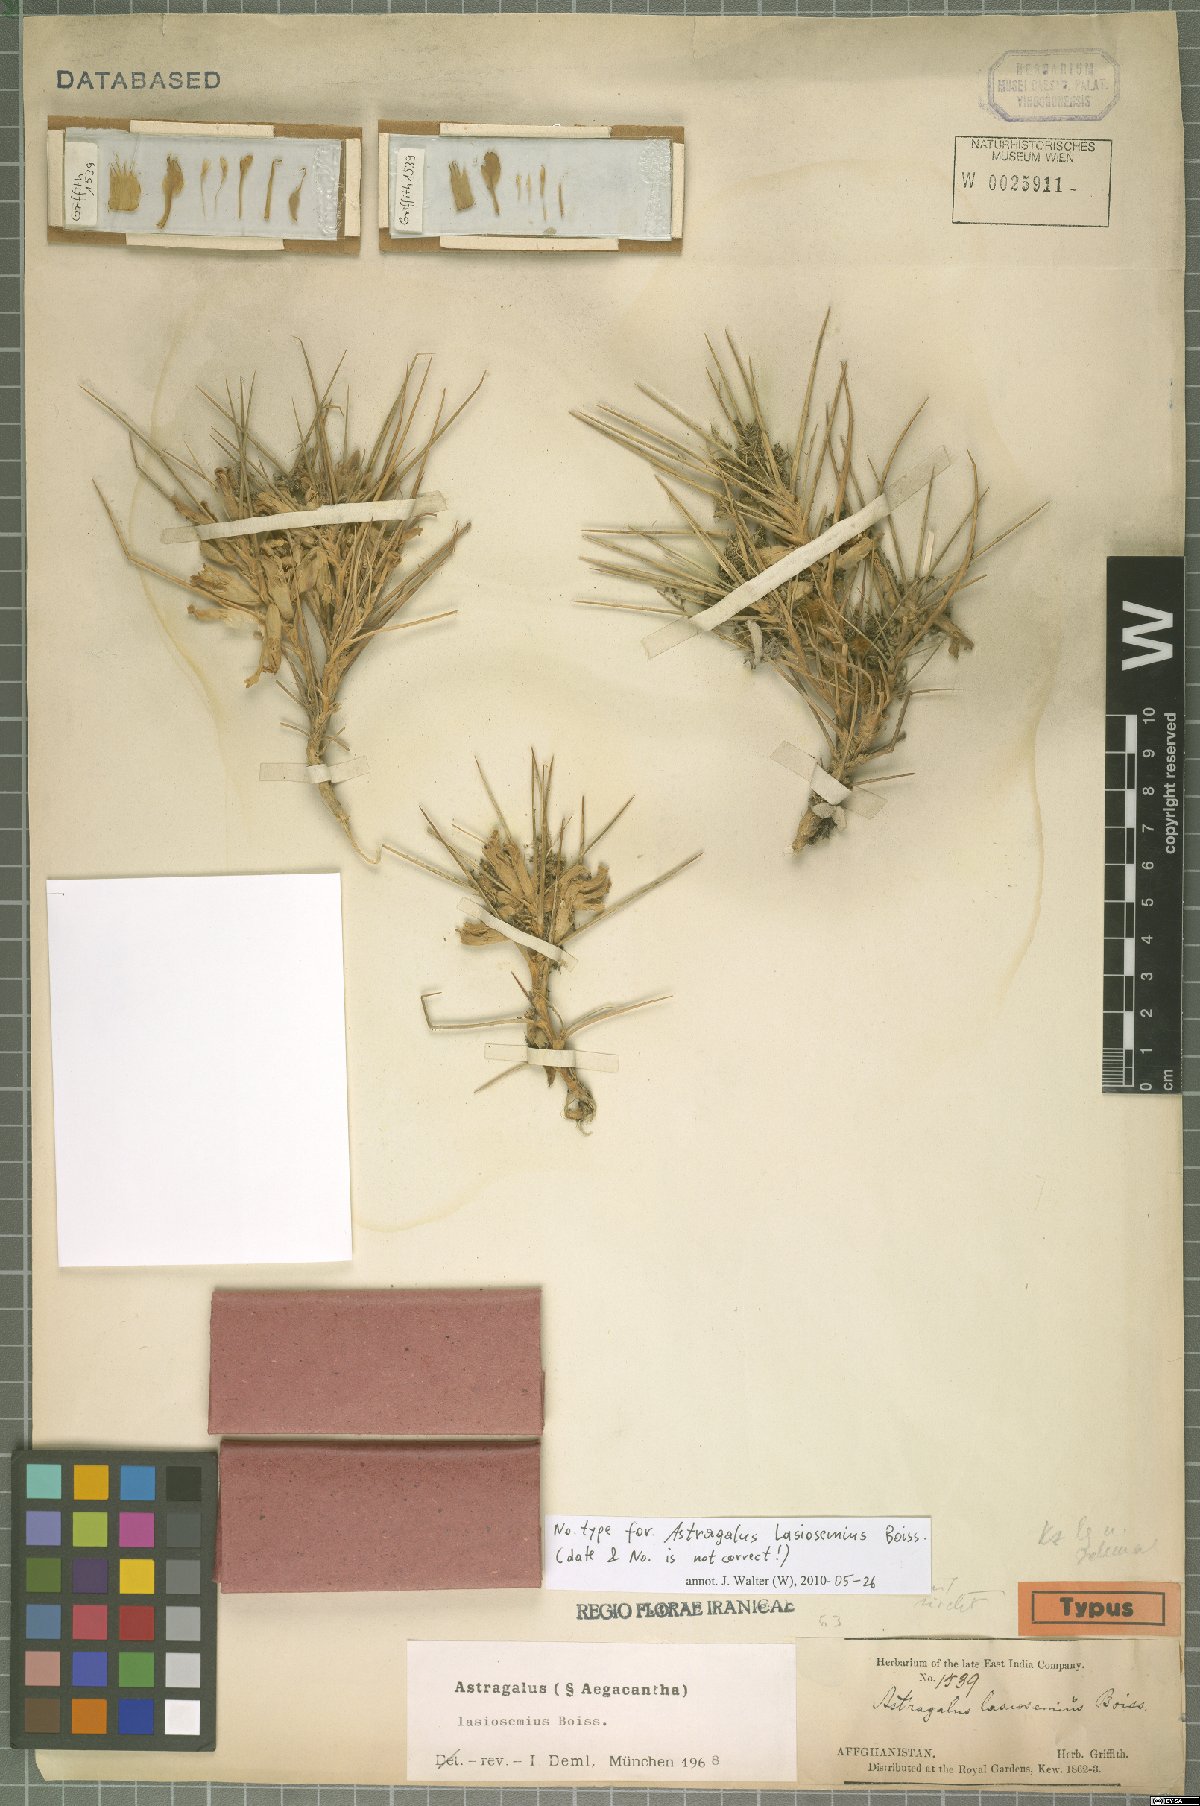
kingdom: Plantae
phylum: Tracheophyta
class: Magnoliopsida
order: Fabales
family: Fabaceae
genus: Astragalus
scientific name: Astragalus lasiosemius
